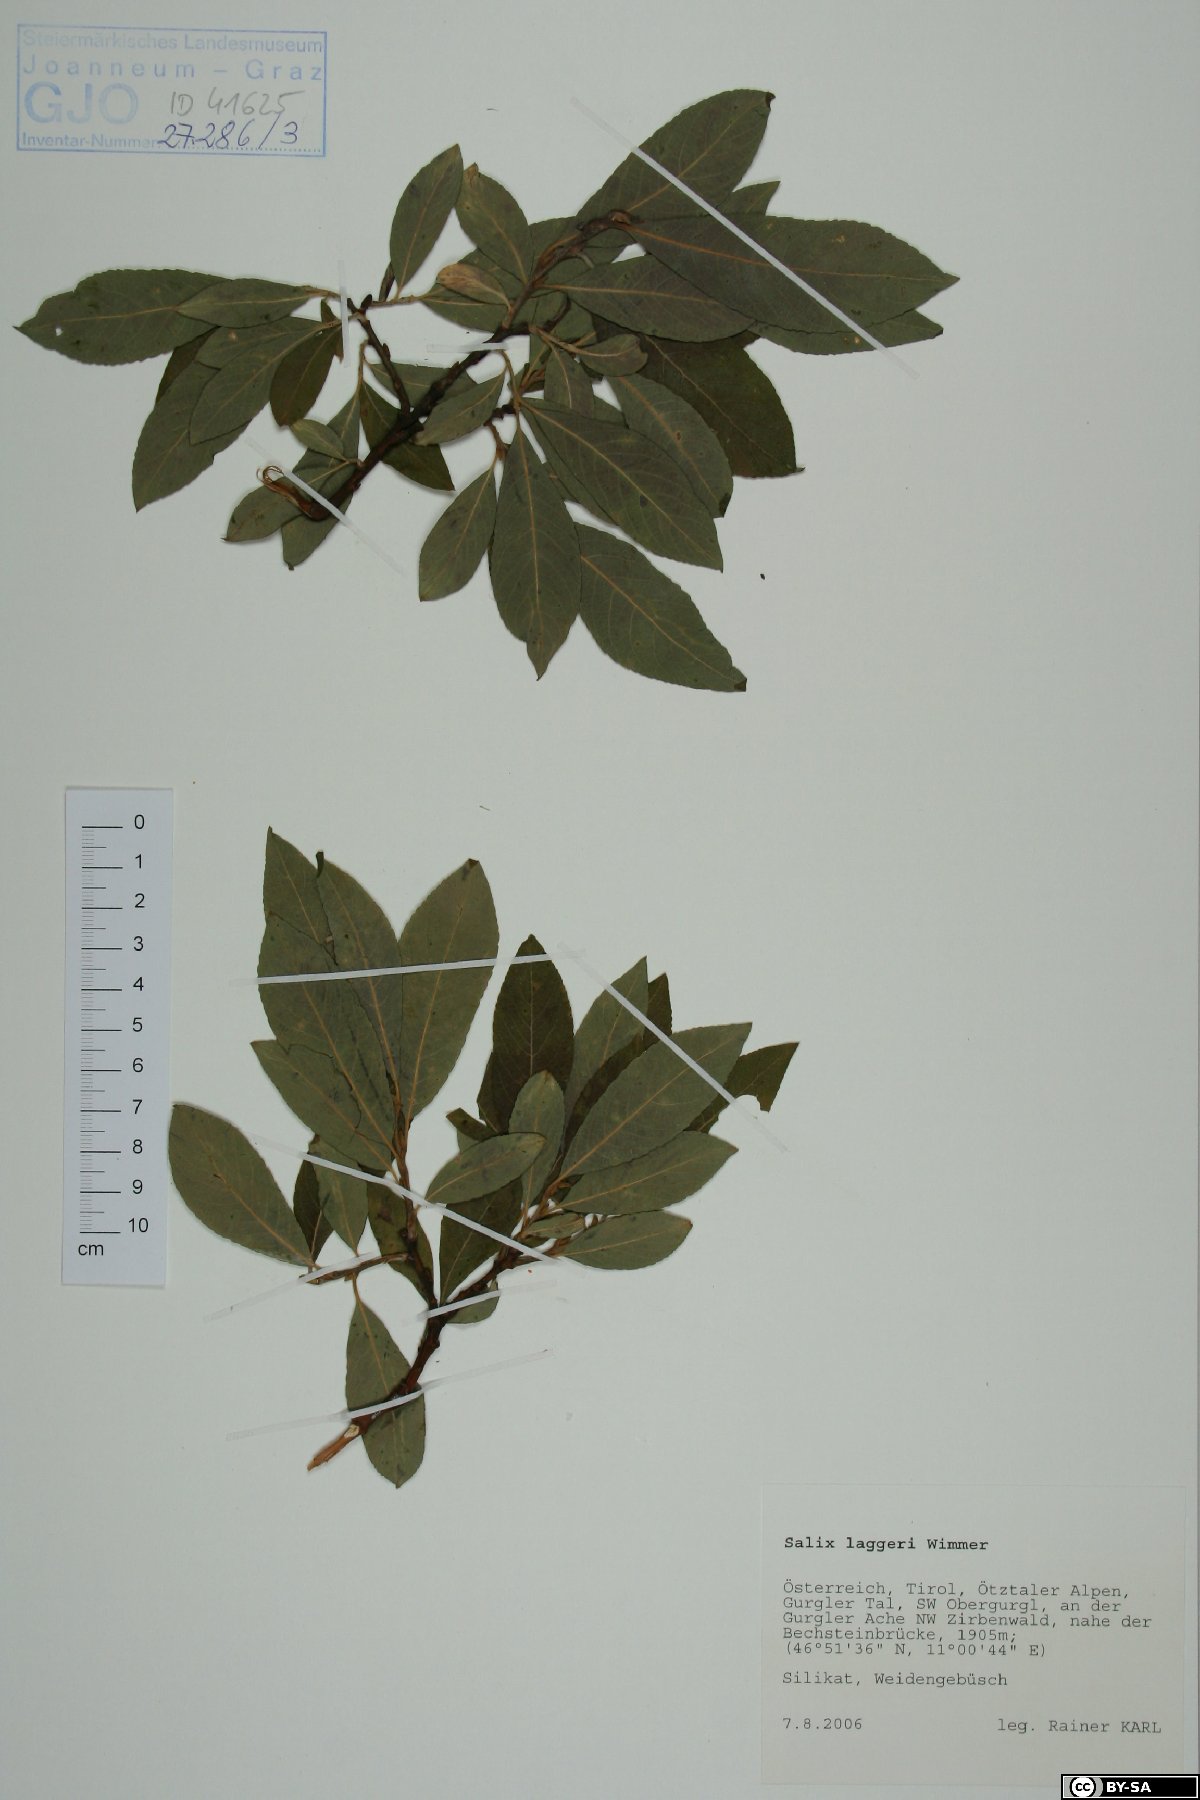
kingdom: Plantae
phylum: Tracheophyta
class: Magnoliopsida
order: Malpighiales
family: Salicaceae
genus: Salix
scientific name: Salix laggeri
